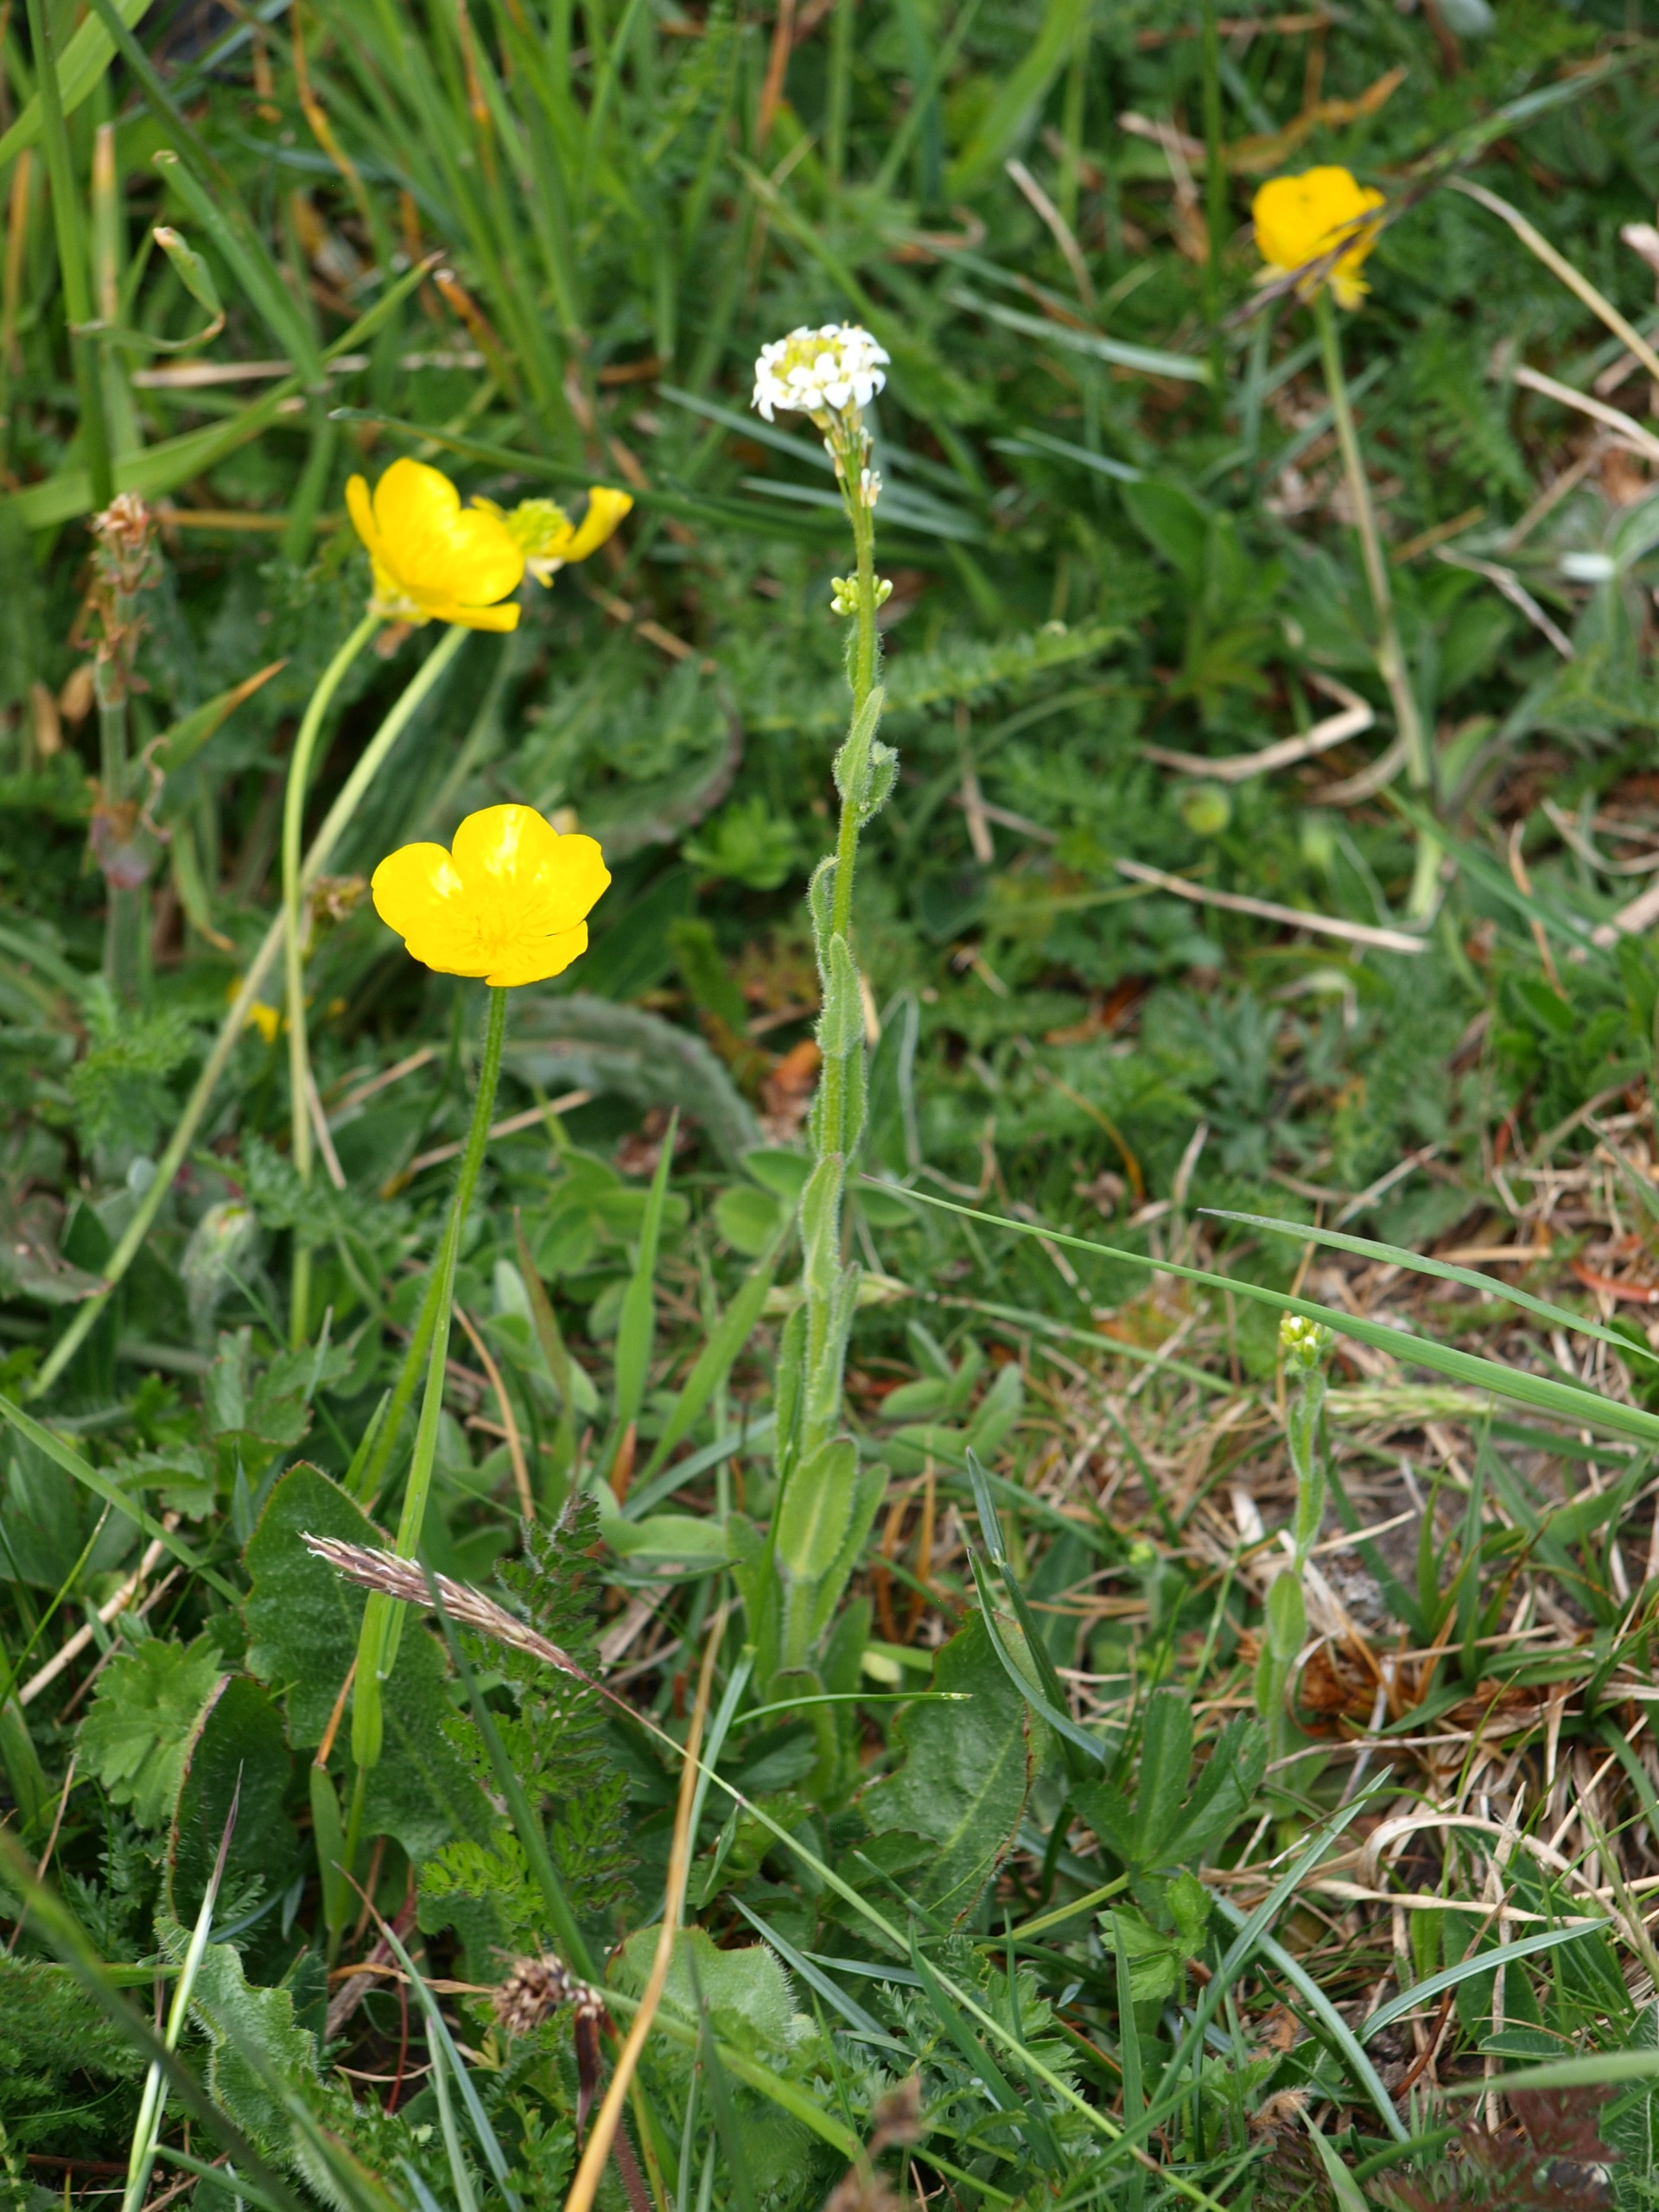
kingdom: Plantae
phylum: Tracheophyta
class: Magnoliopsida
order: Brassicales
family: Brassicaceae
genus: Arabis
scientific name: Arabis hirsuta
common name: Stivhåret kalkkarse
